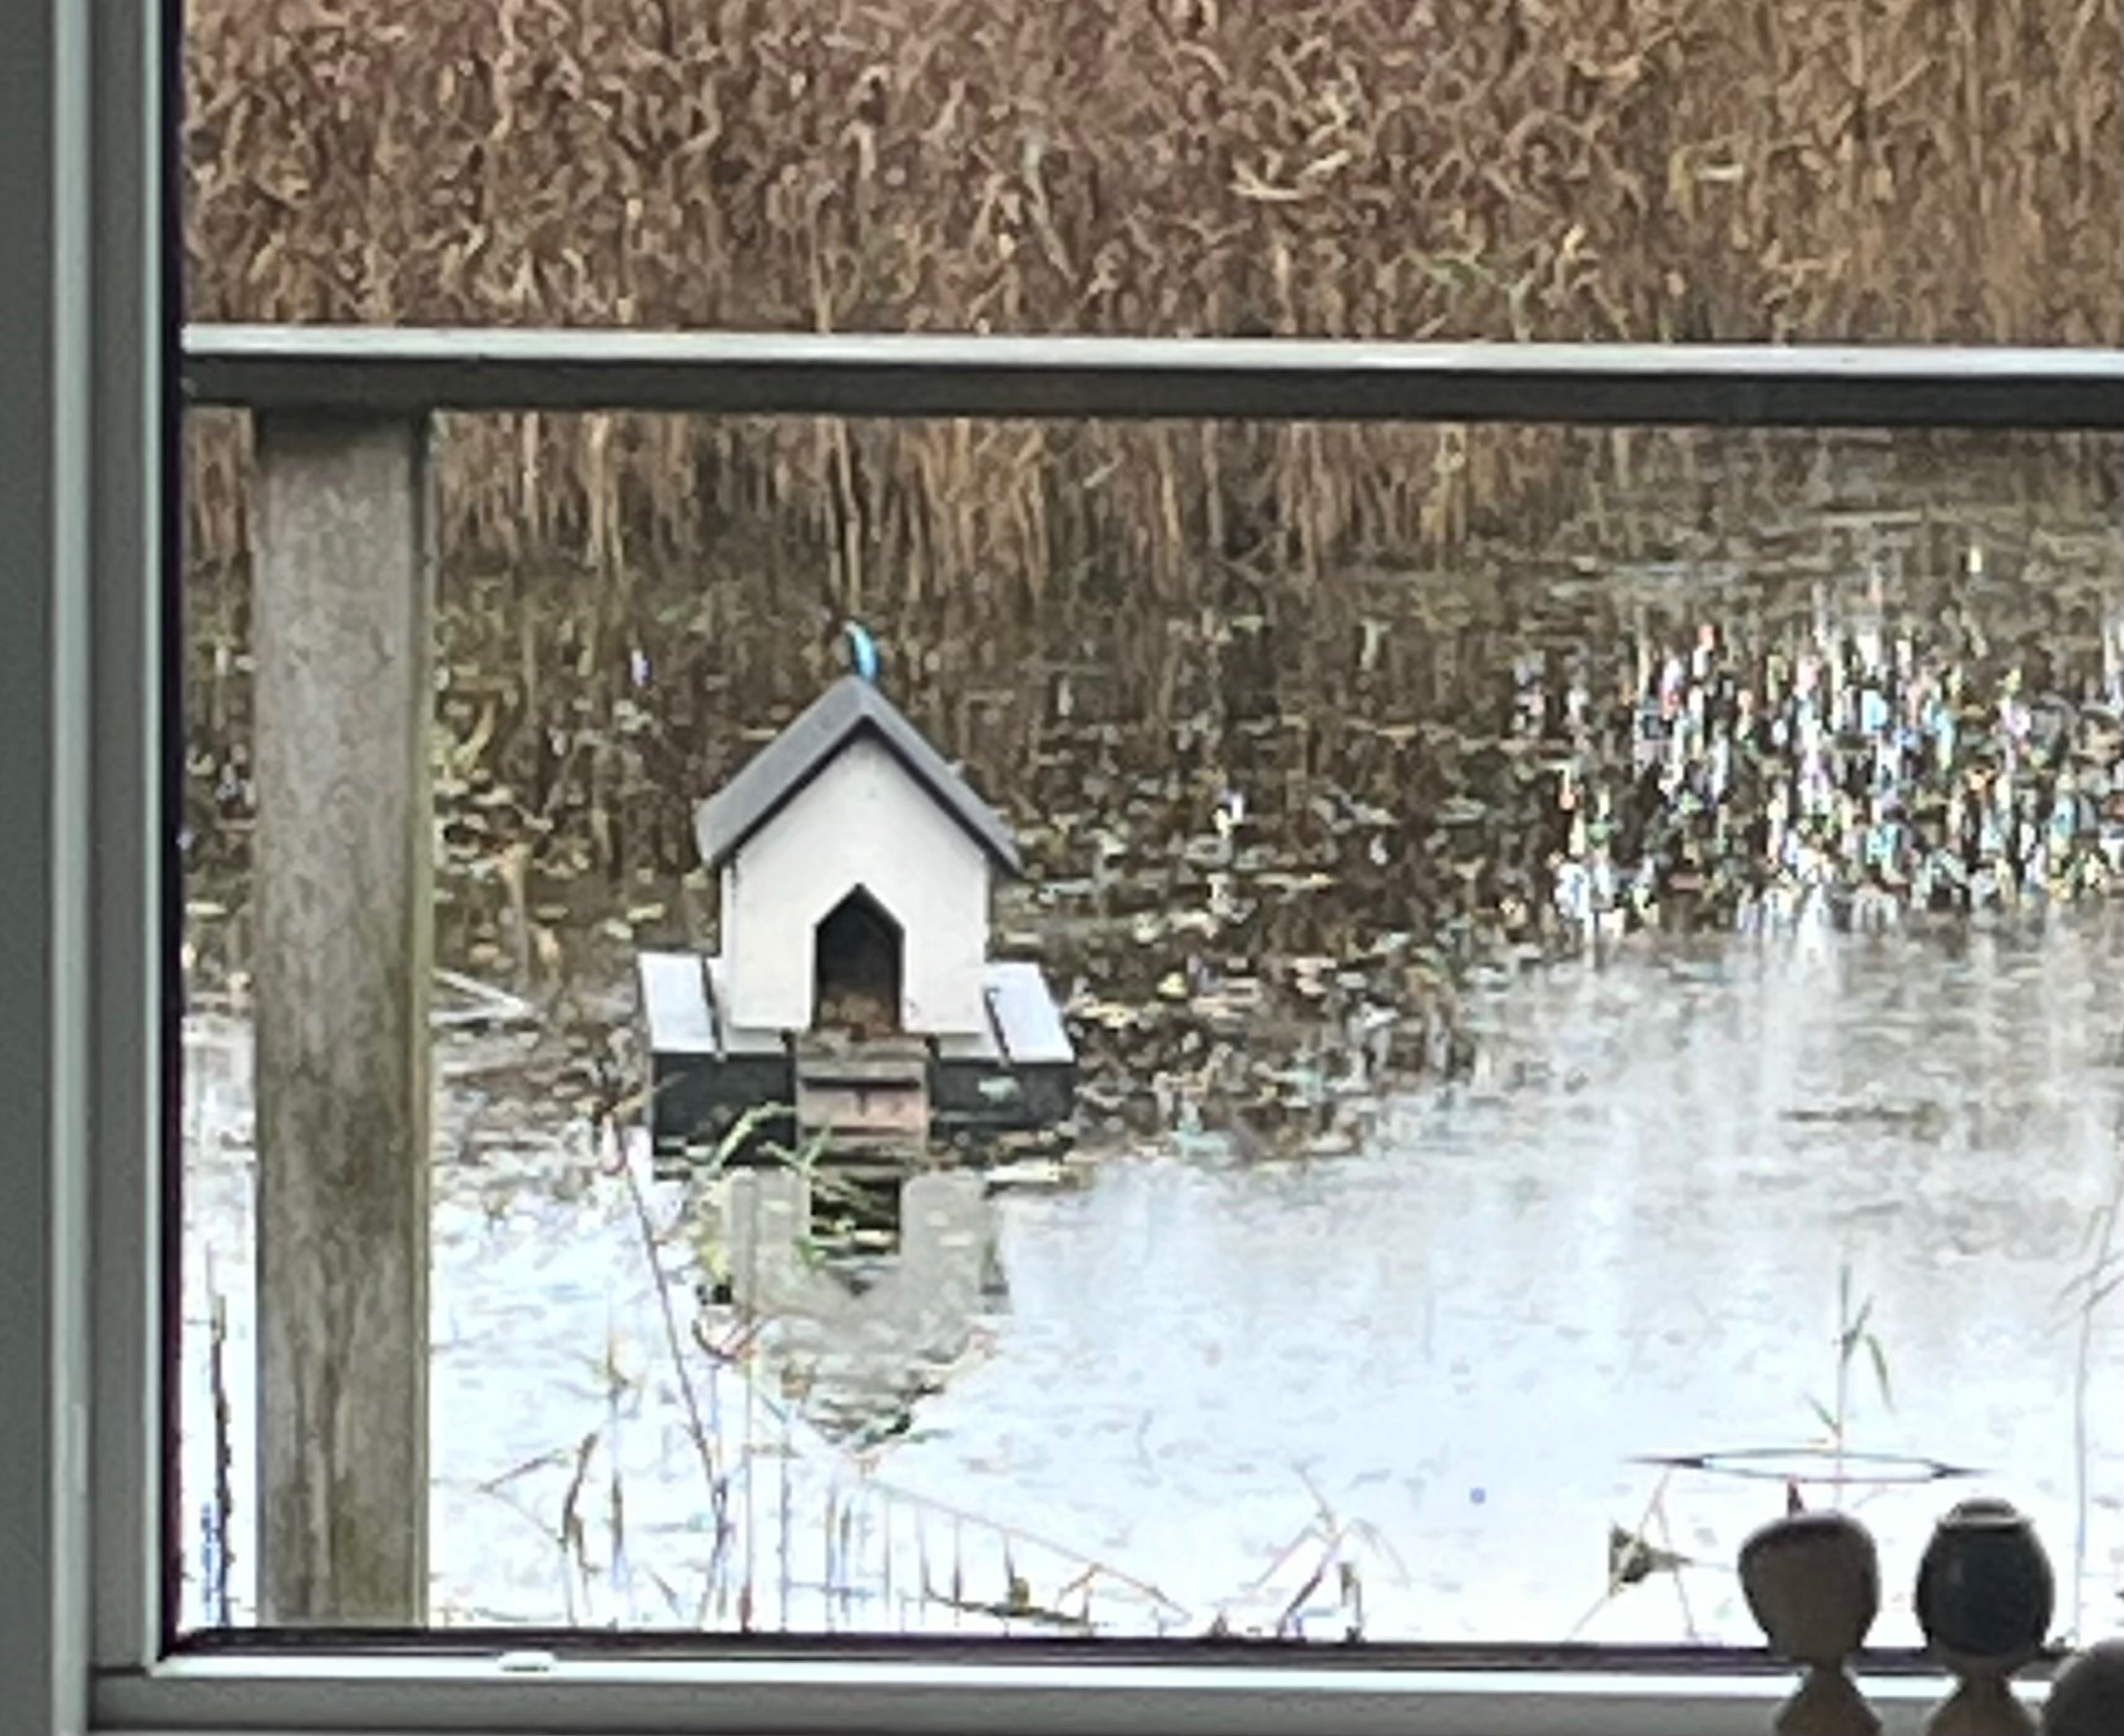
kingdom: Animalia
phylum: Chordata
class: Aves
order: Coraciiformes
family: Alcedinidae
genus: Alcedo
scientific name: Alcedo atthis
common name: Isfugl
